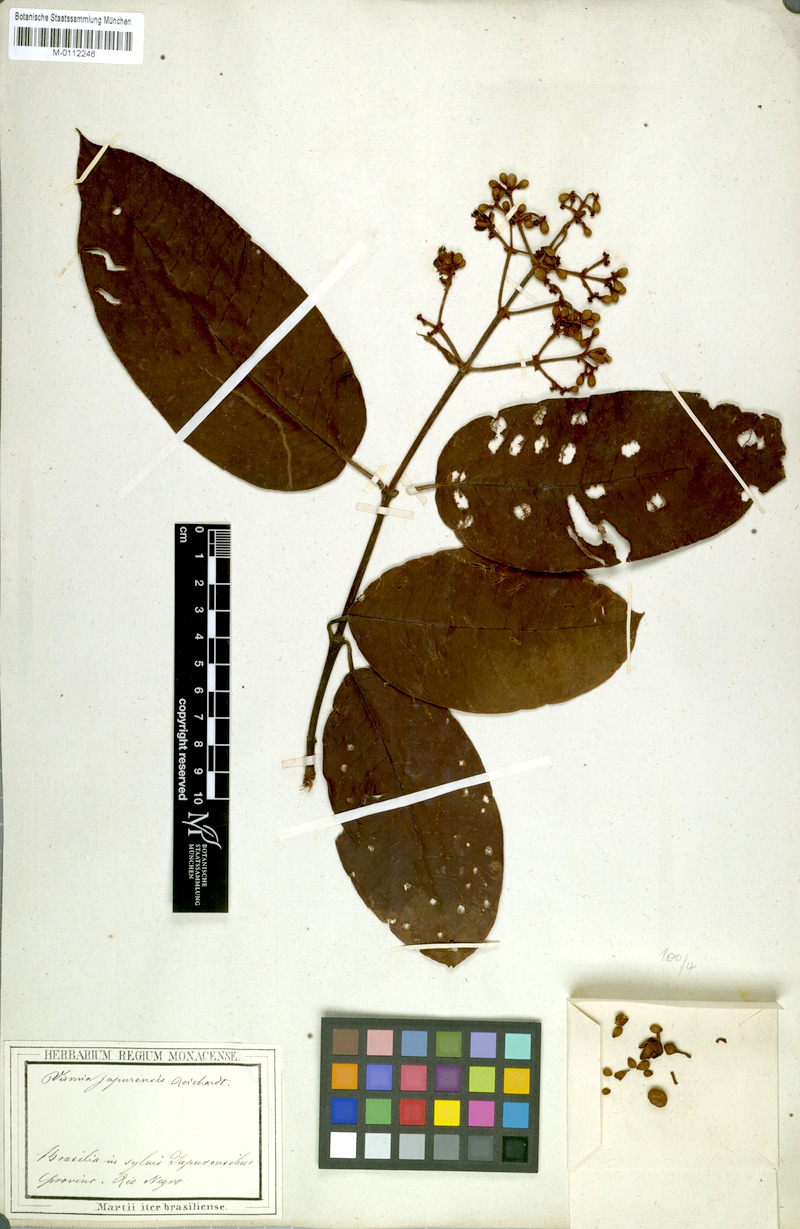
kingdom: Plantae
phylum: Tracheophyta
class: Magnoliopsida
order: Malpighiales
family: Hypericaceae
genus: Vismia
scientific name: Vismia japurensis
